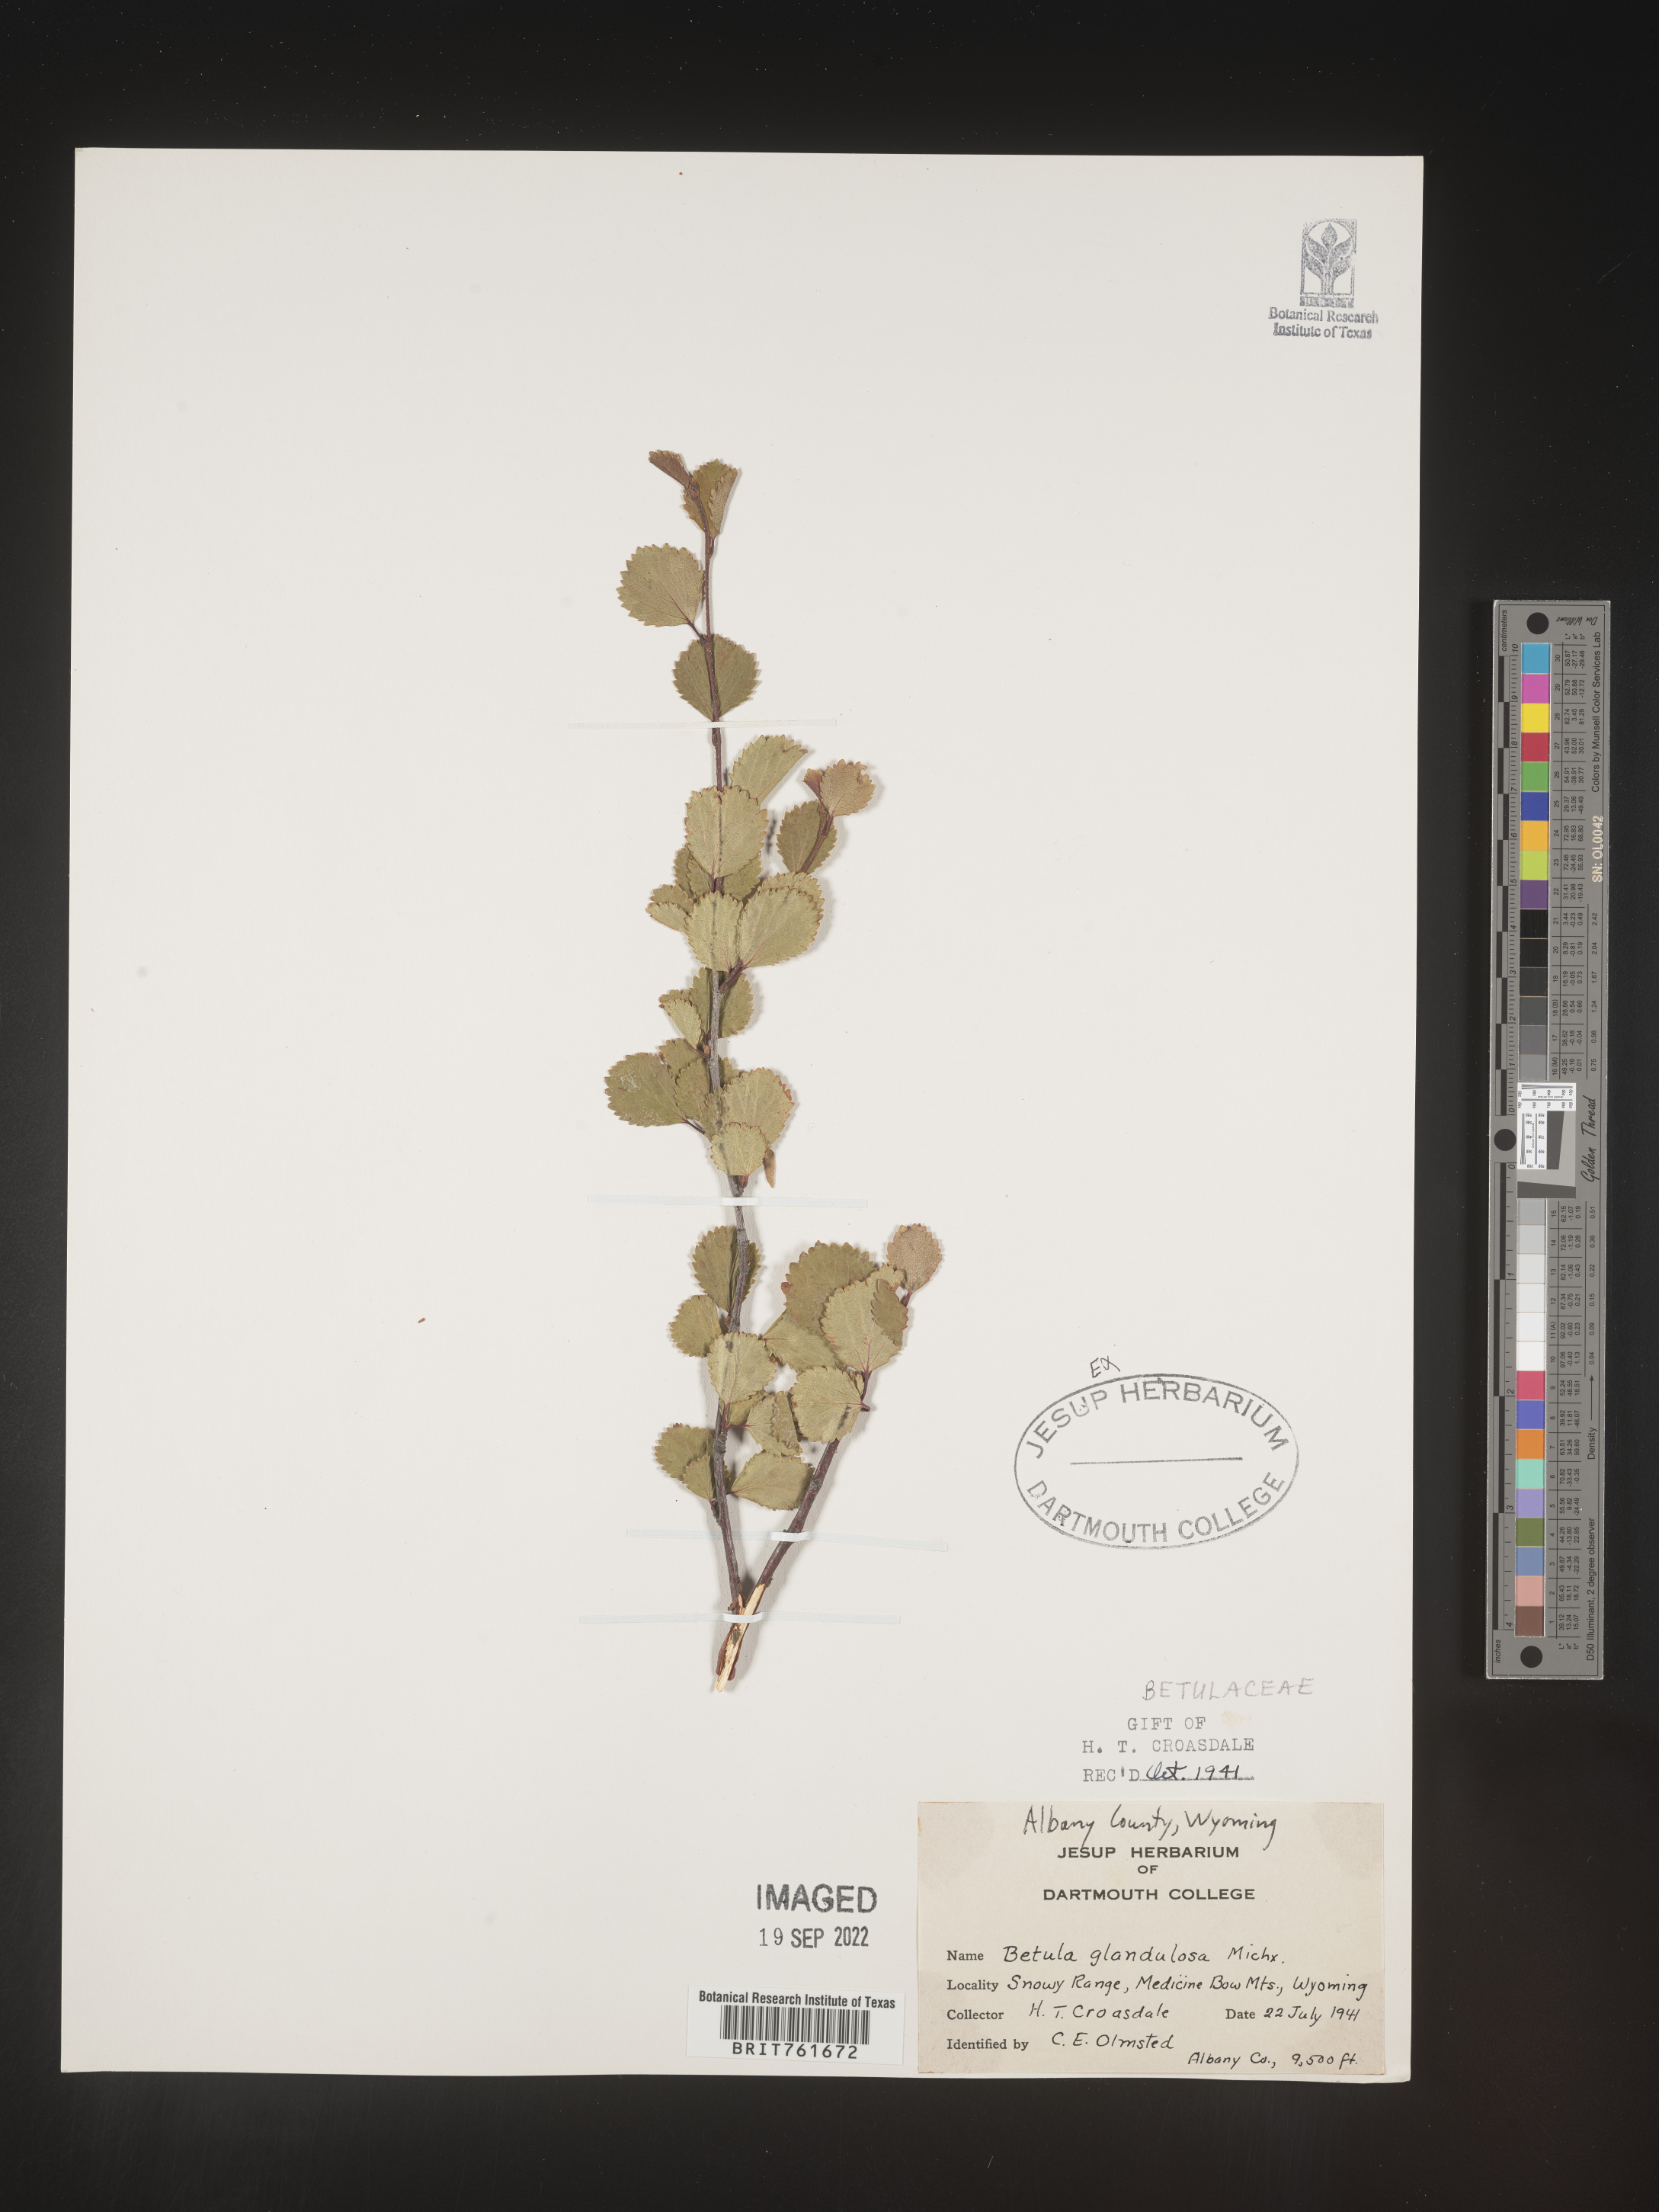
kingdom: Plantae
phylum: Tracheophyta
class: Magnoliopsida
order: Fagales
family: Betulaceae
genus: Betula
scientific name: Betula
